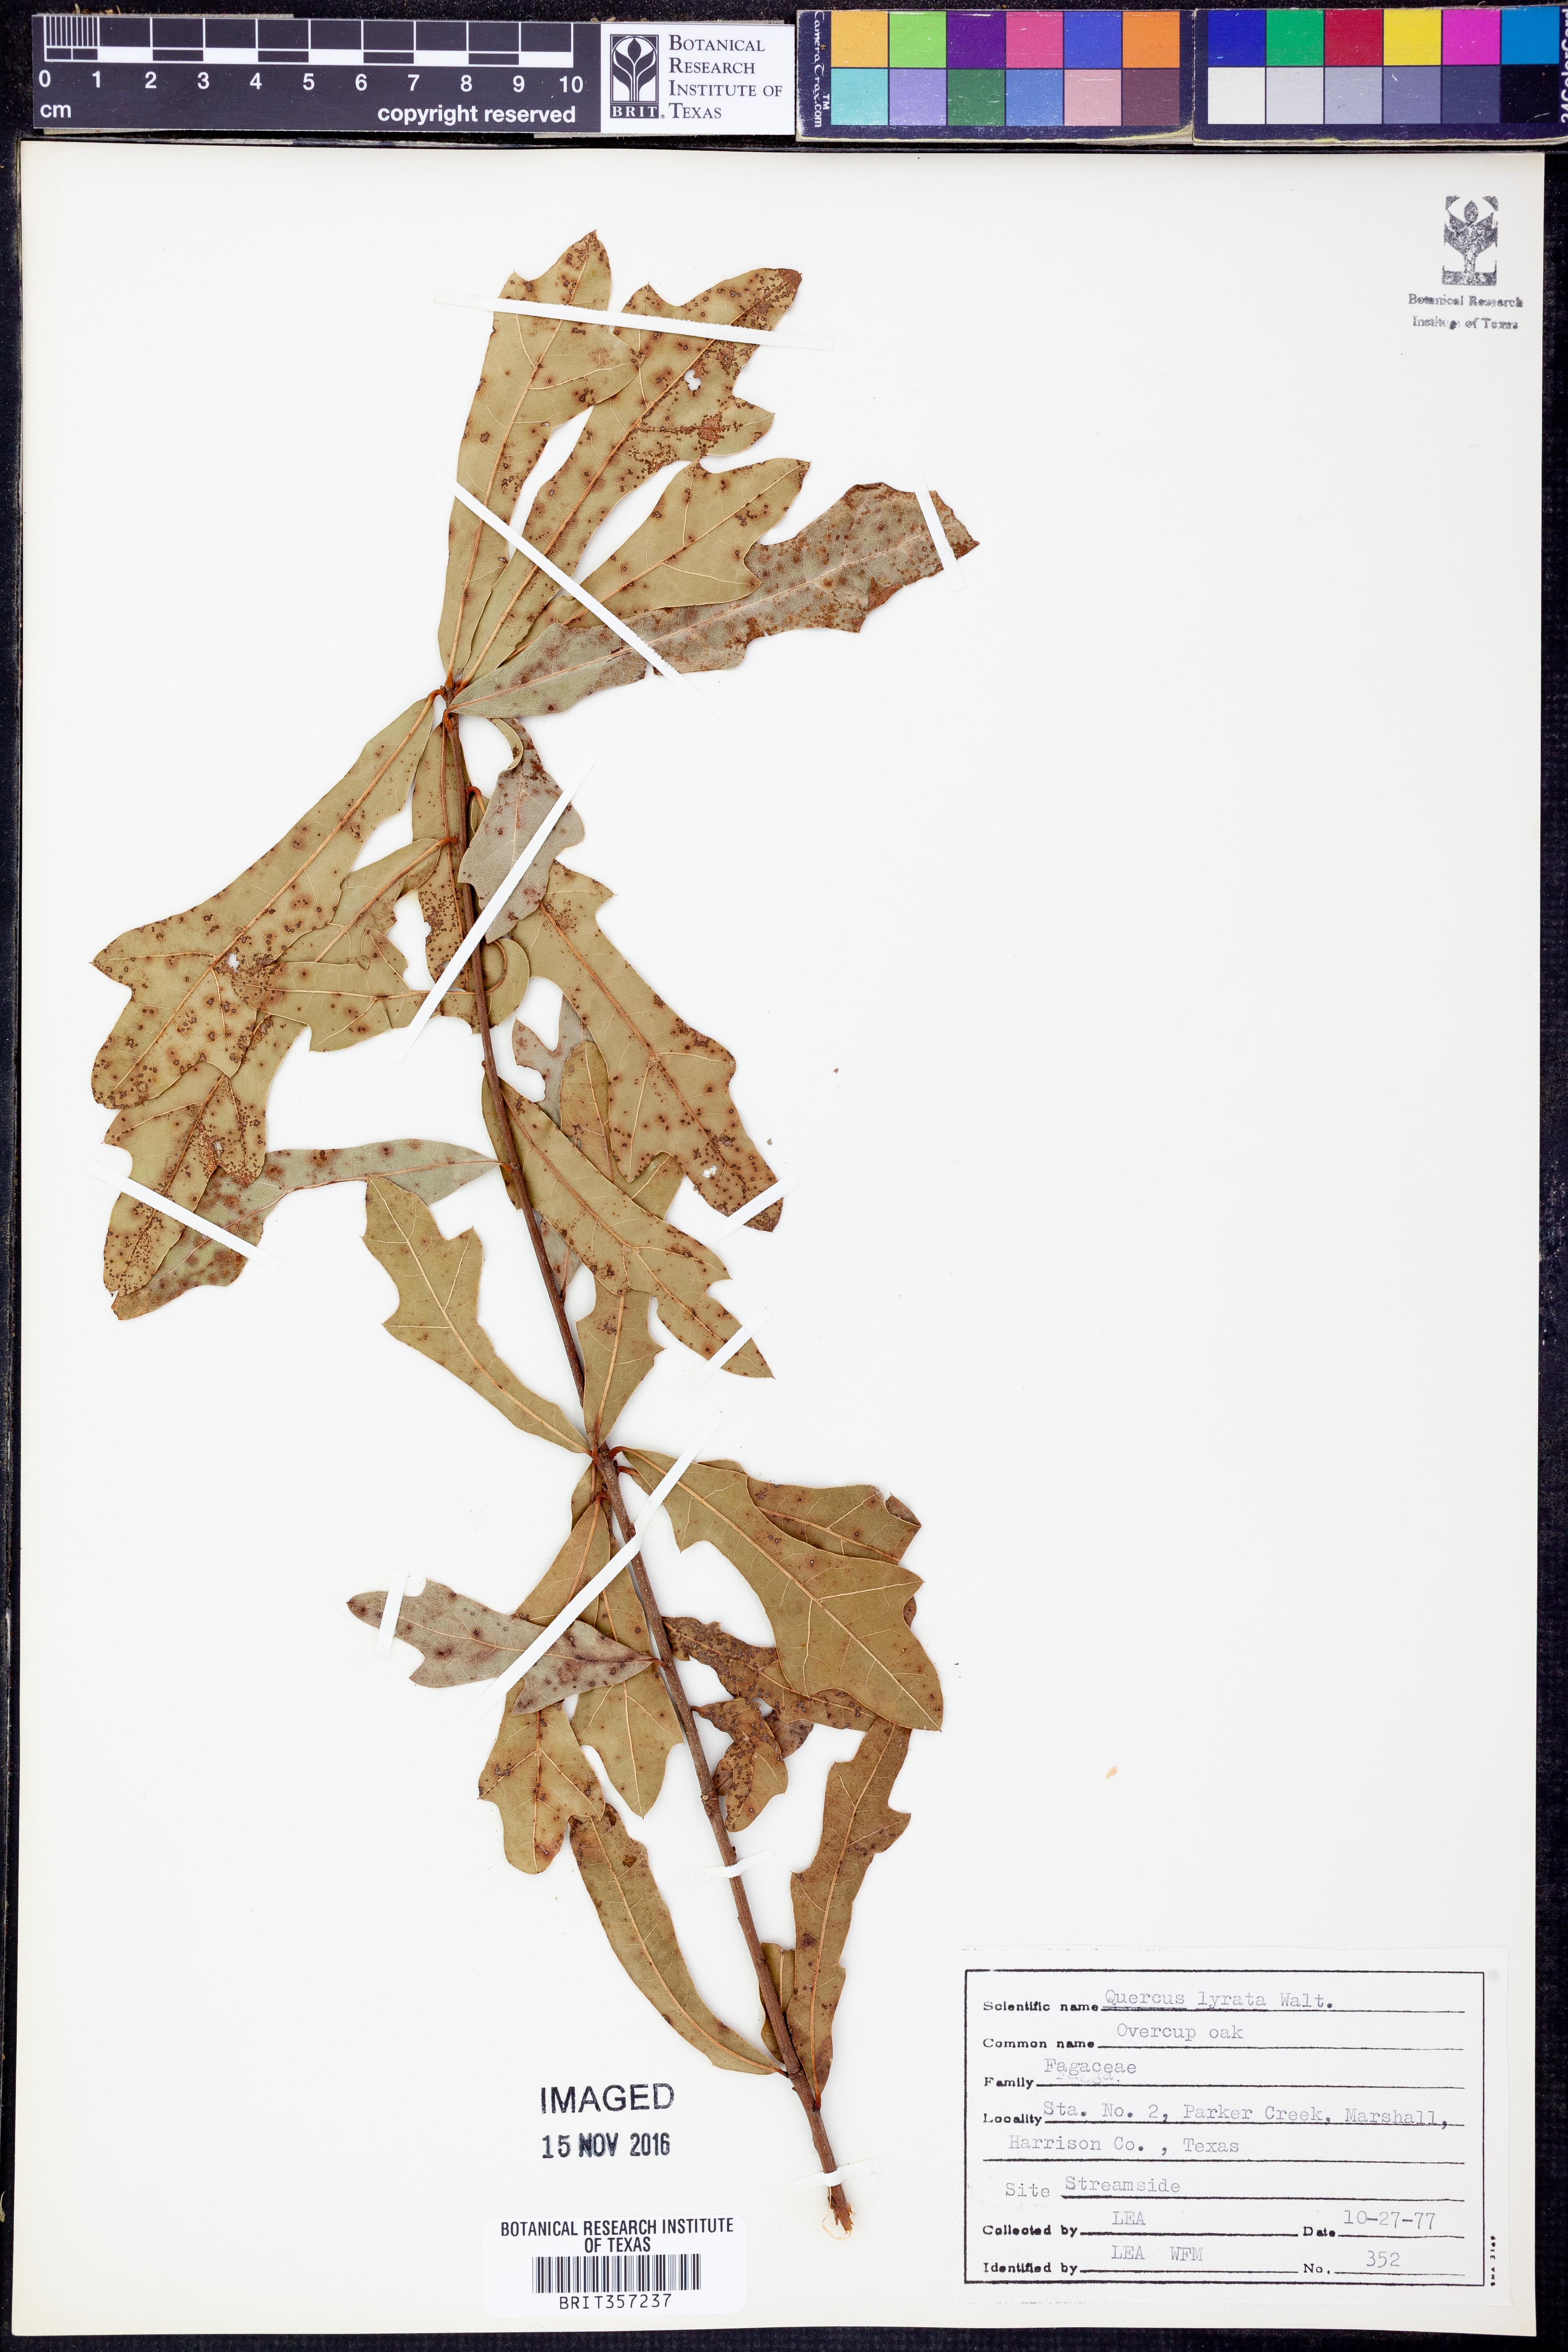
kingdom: Plantae
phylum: Tracheophyta
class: Magnoliopsida
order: Fagales
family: Fagaceae
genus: Quercus
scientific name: Quercus lyrata
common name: Overcup oak
